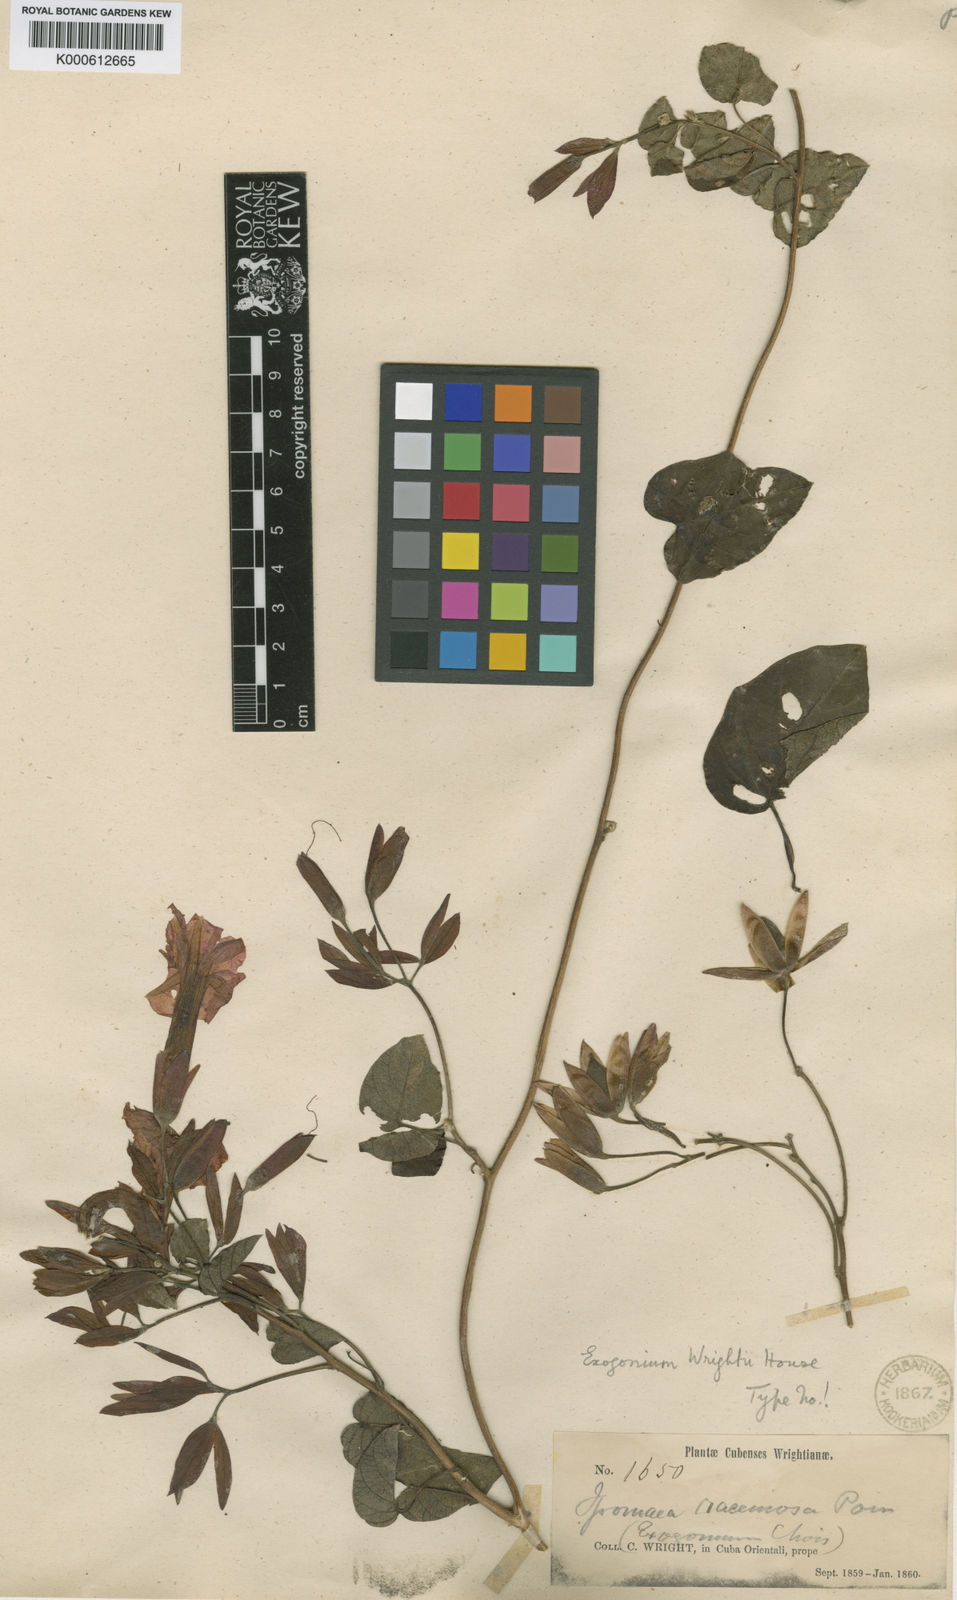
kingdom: Plantae
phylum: Tracheophyta
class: Magnoliopsida
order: Solanales
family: Convolvulaceae
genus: Ipomoea
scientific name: Ipomoea racemosa
